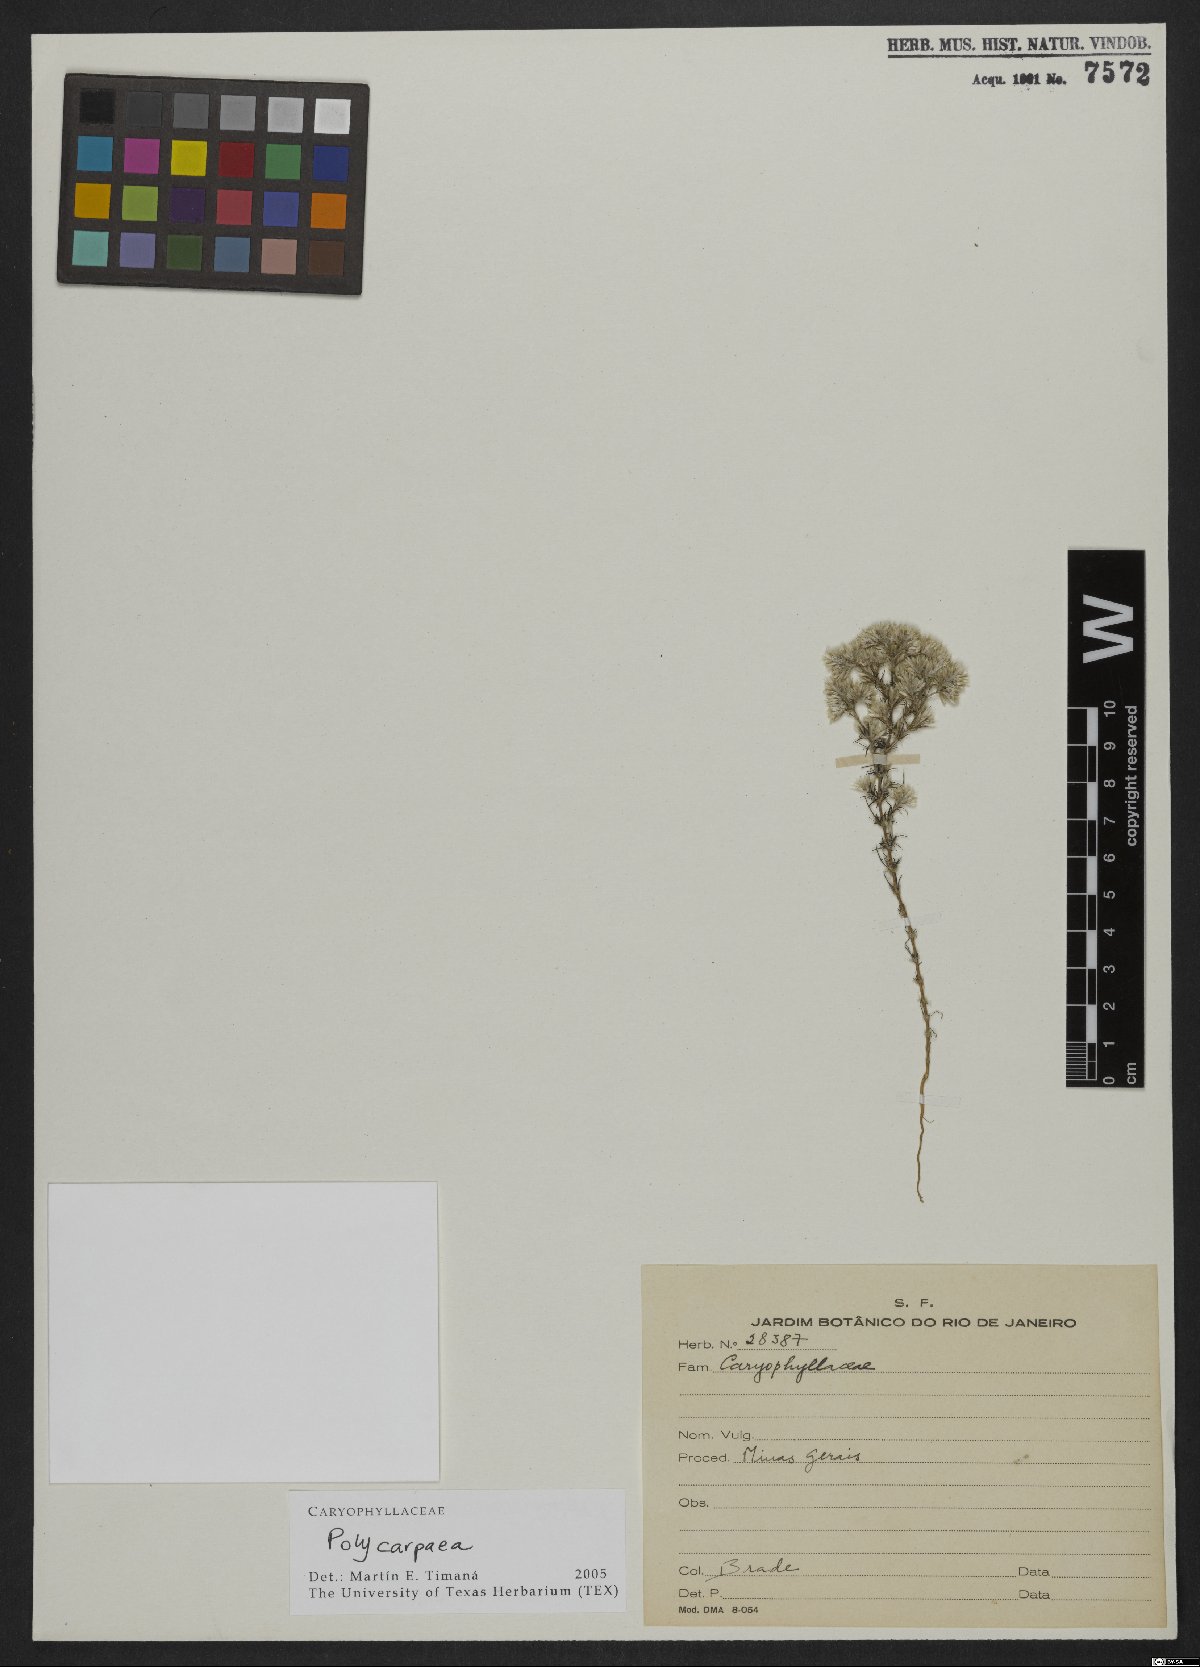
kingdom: Plantae
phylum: Tracheophyta
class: Magnoliopsida
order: Caryophyllales
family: Caryophyllaceae
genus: Polycarpaea
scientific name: Polycarpaea
